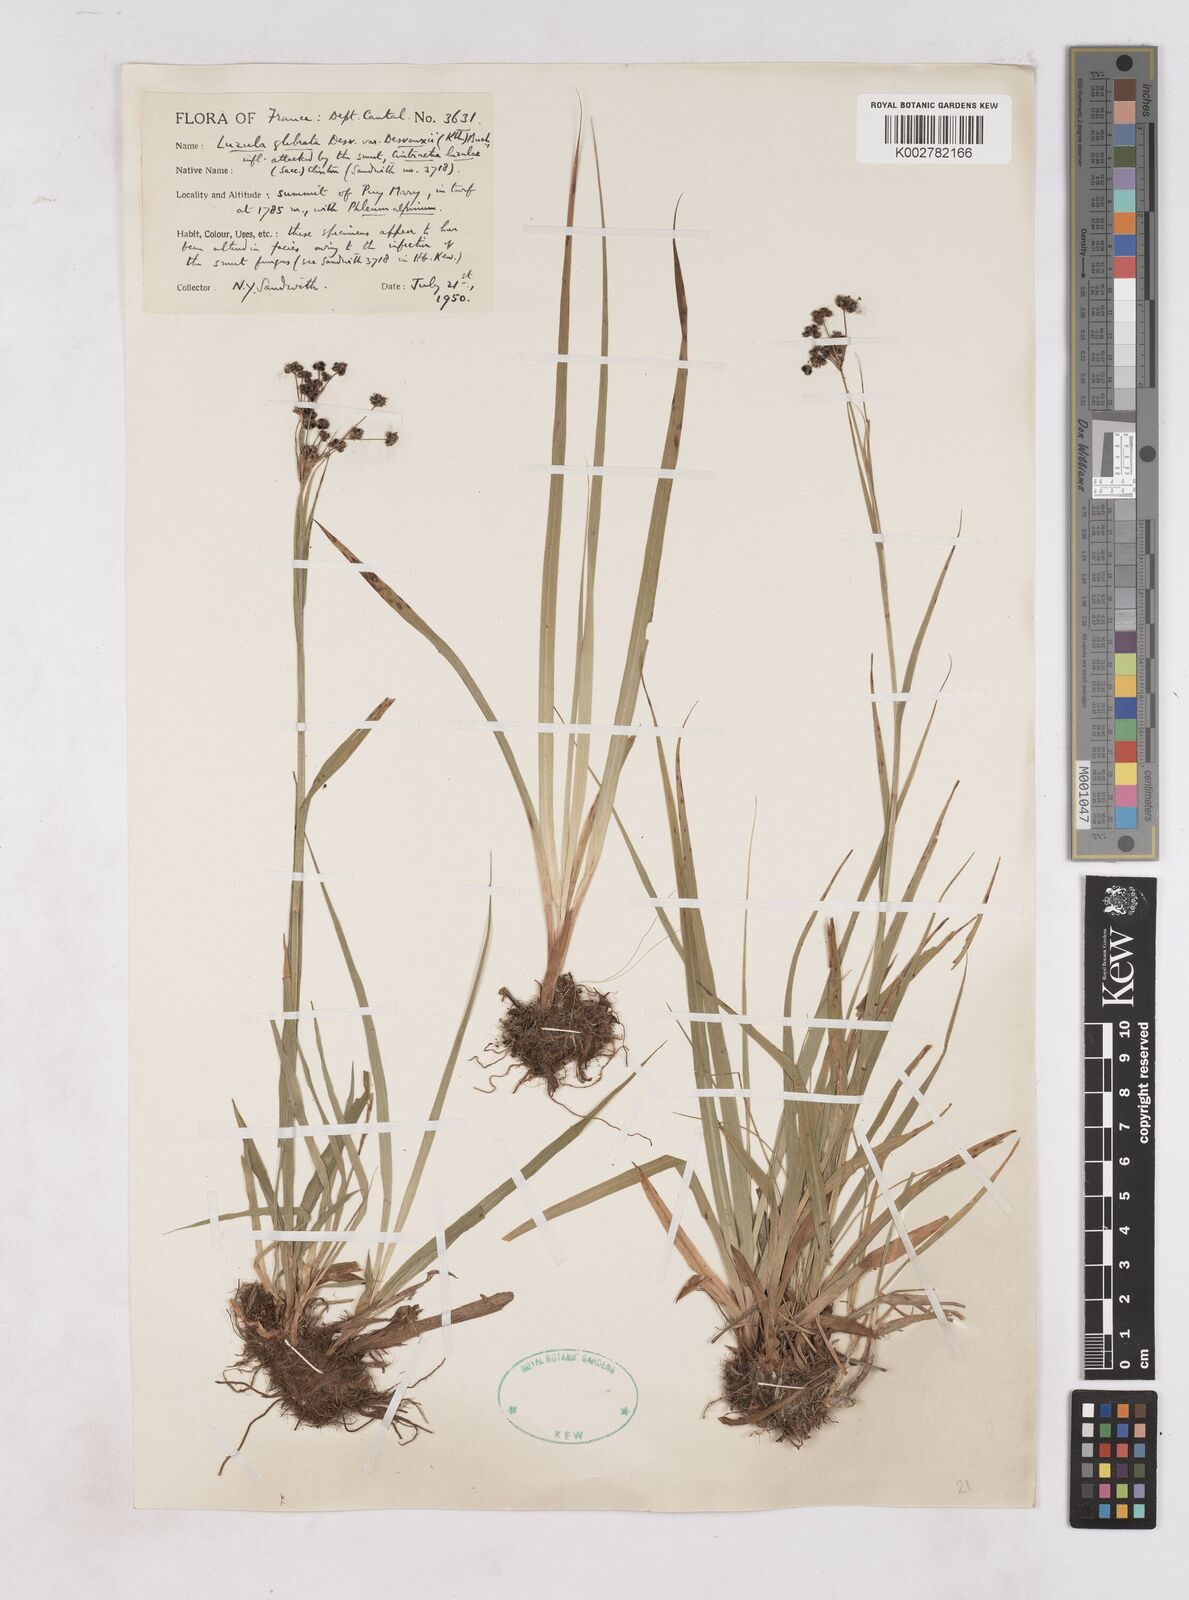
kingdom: Plantae
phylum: Tracheophyta
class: Liliopsida
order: Poales
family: Juncaceae
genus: Luzula
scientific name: Luzula glabrata
